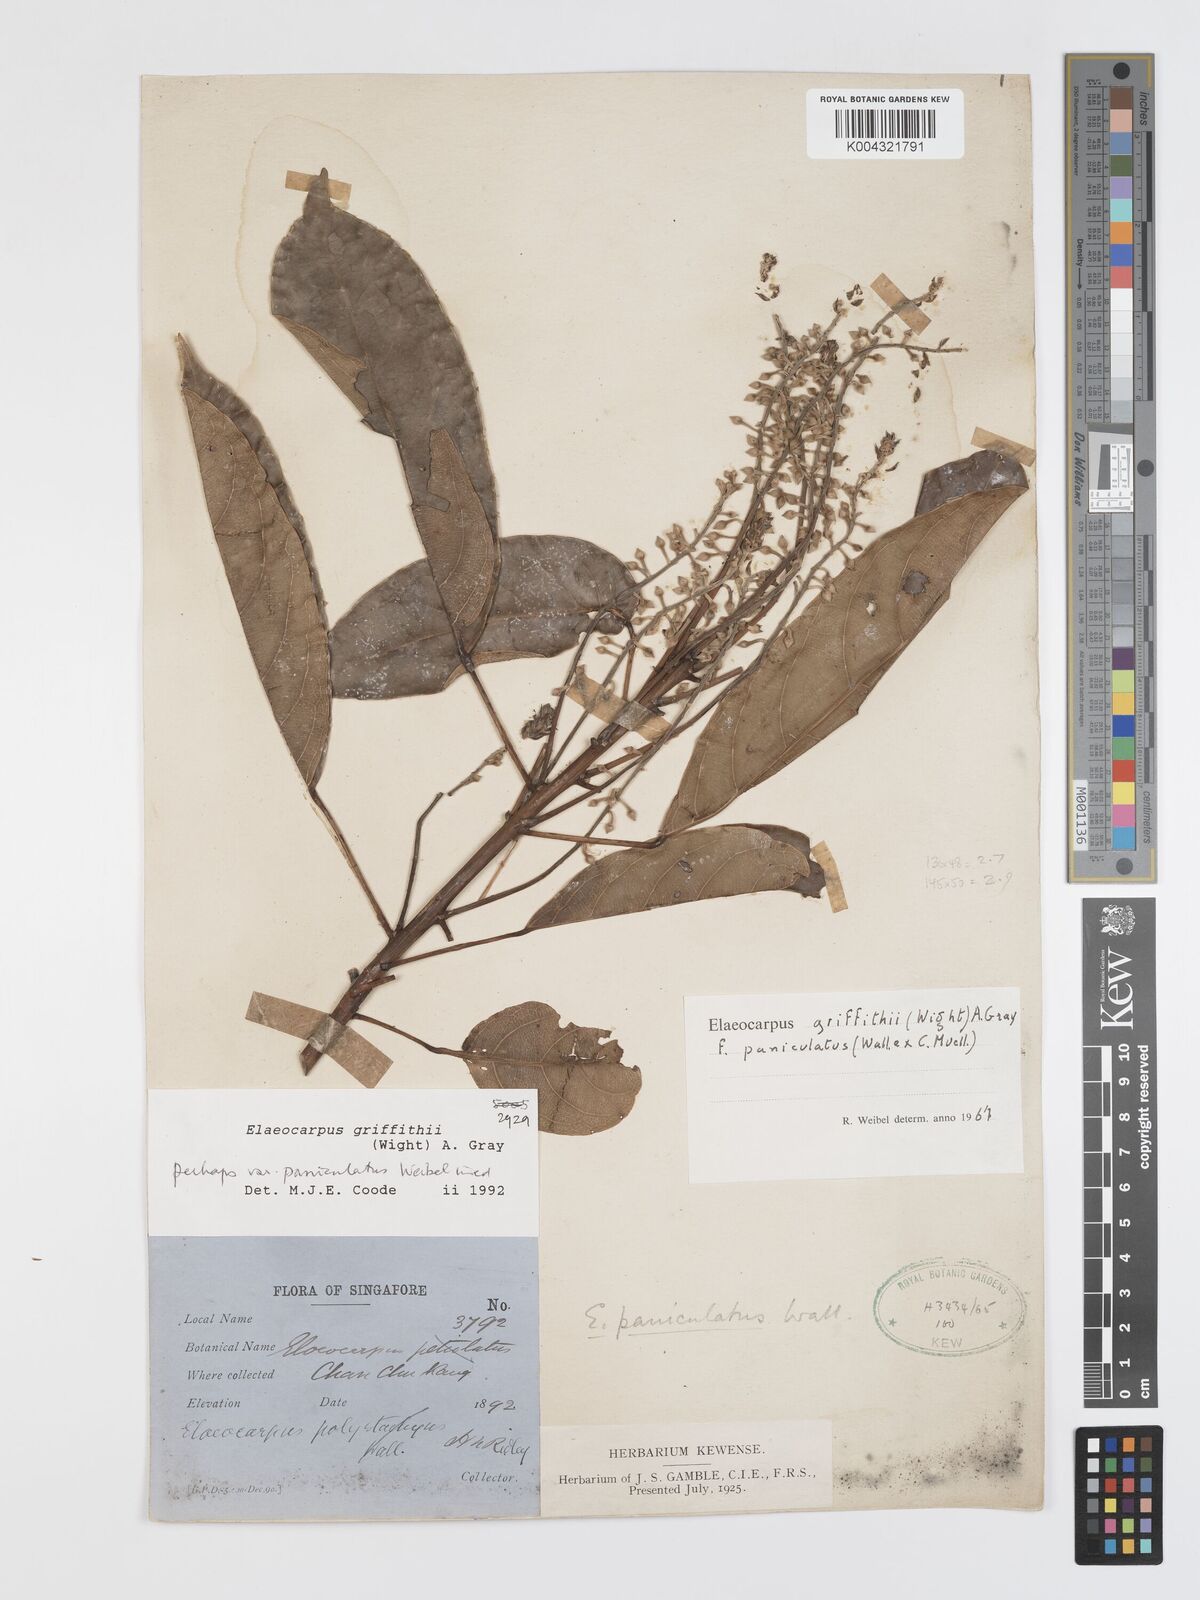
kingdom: Plantae
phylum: Tracheophyta
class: Magnoliopsida
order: Oxalidales
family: Elaeocarpaceae
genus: Elaeocarpus
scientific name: Elaeocarpus griffithii
